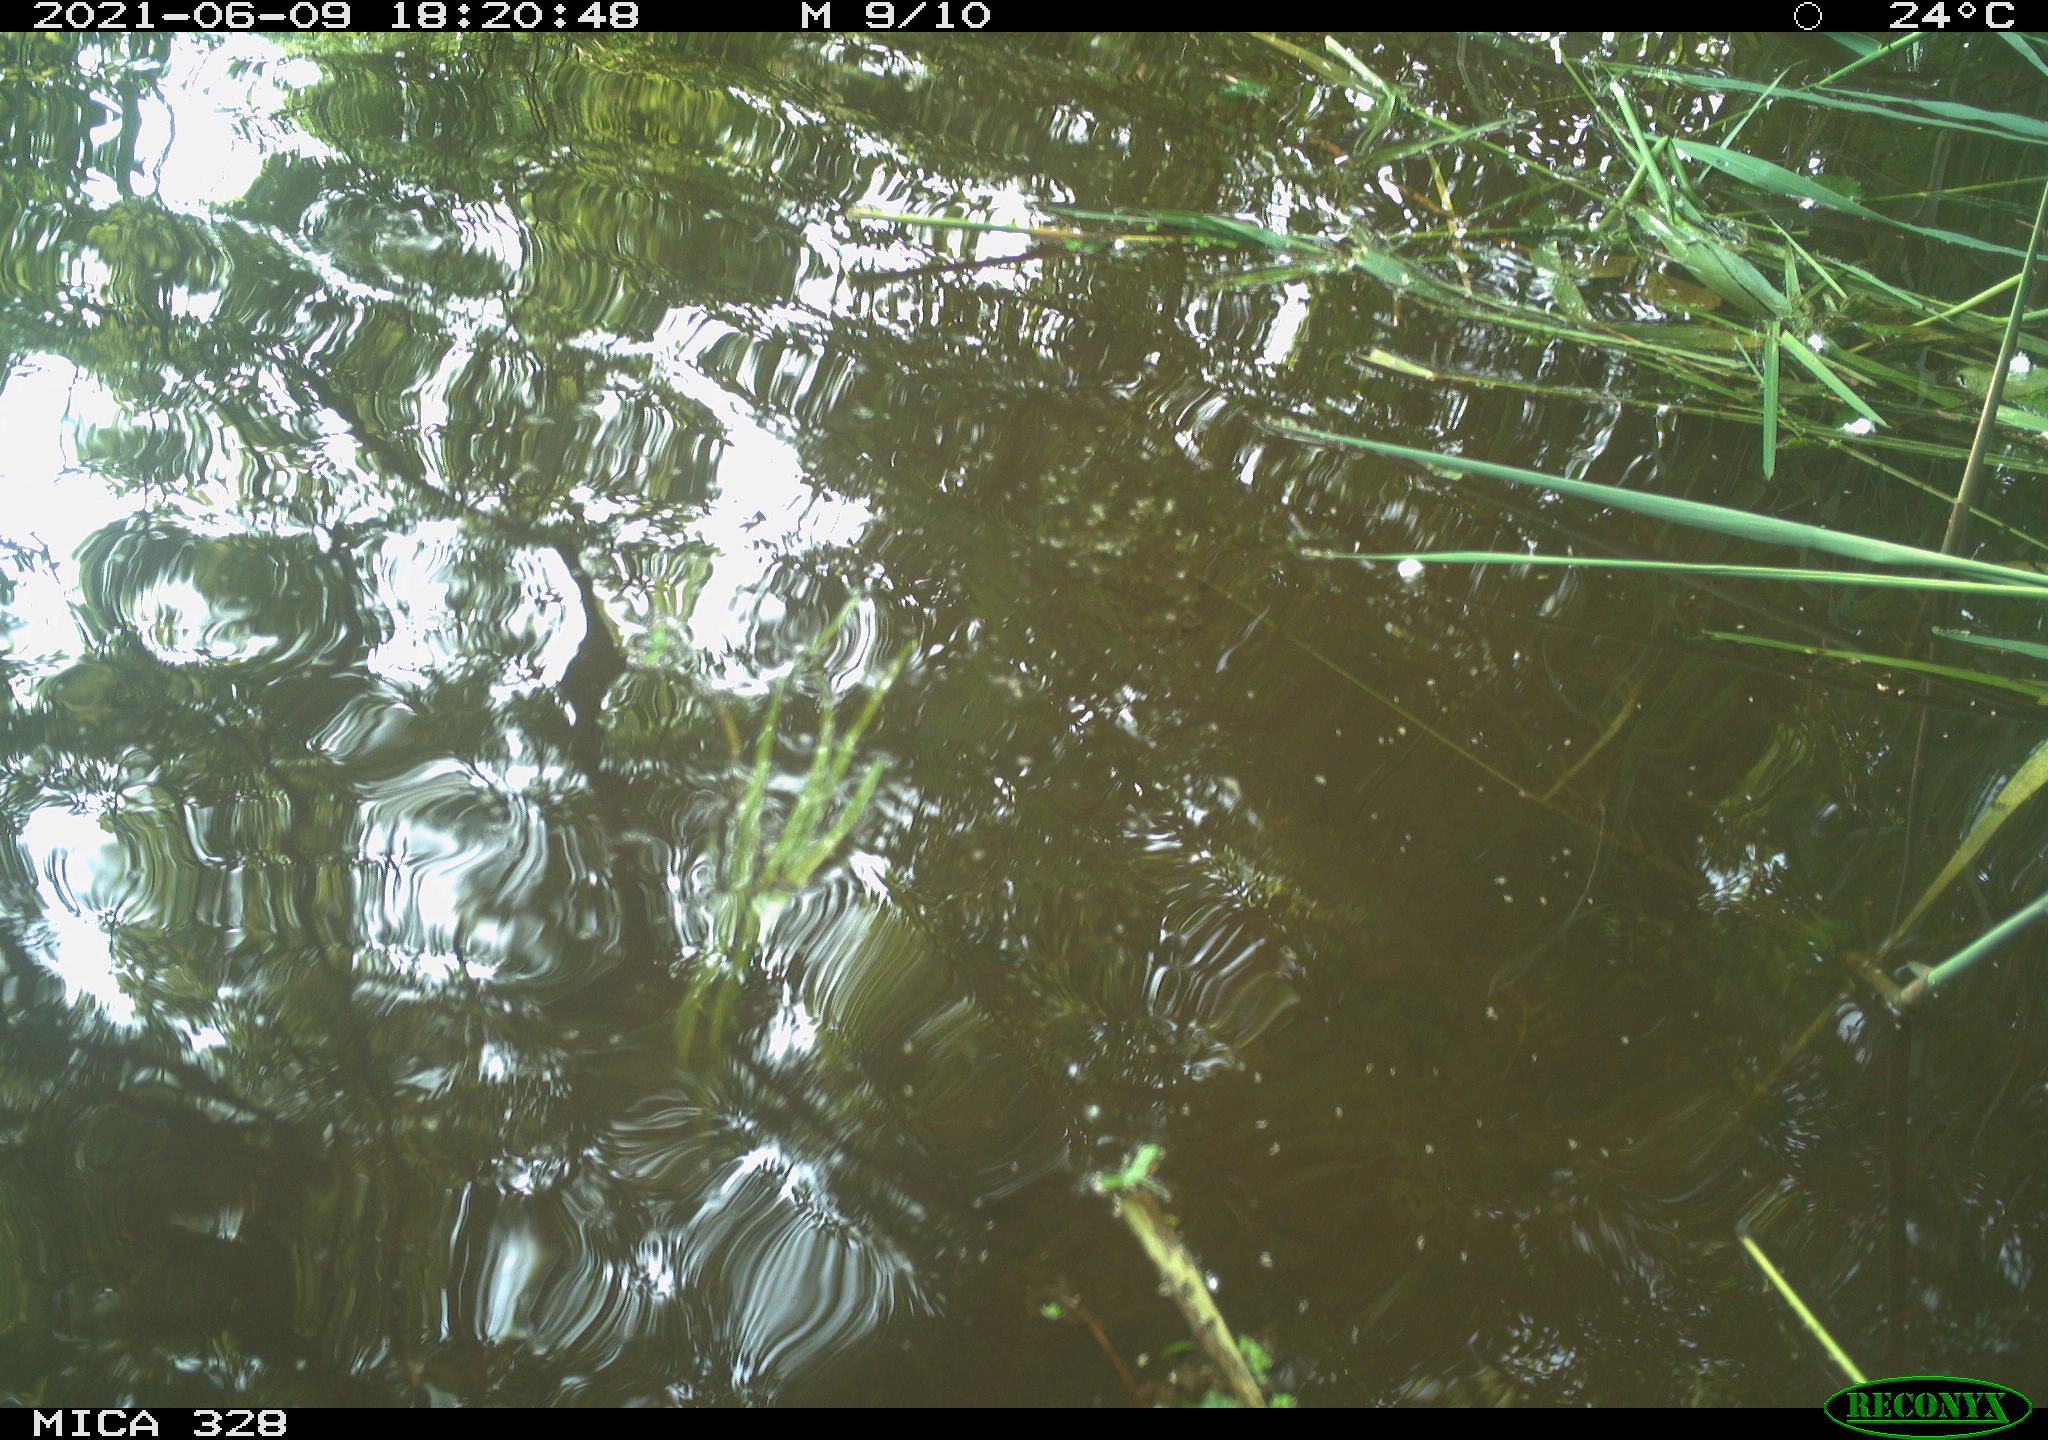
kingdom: Animalia
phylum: Chordata
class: Aves
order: Anseriformes
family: Anatidae
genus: Aix
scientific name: Aix galericulata
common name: Mandarin duck
